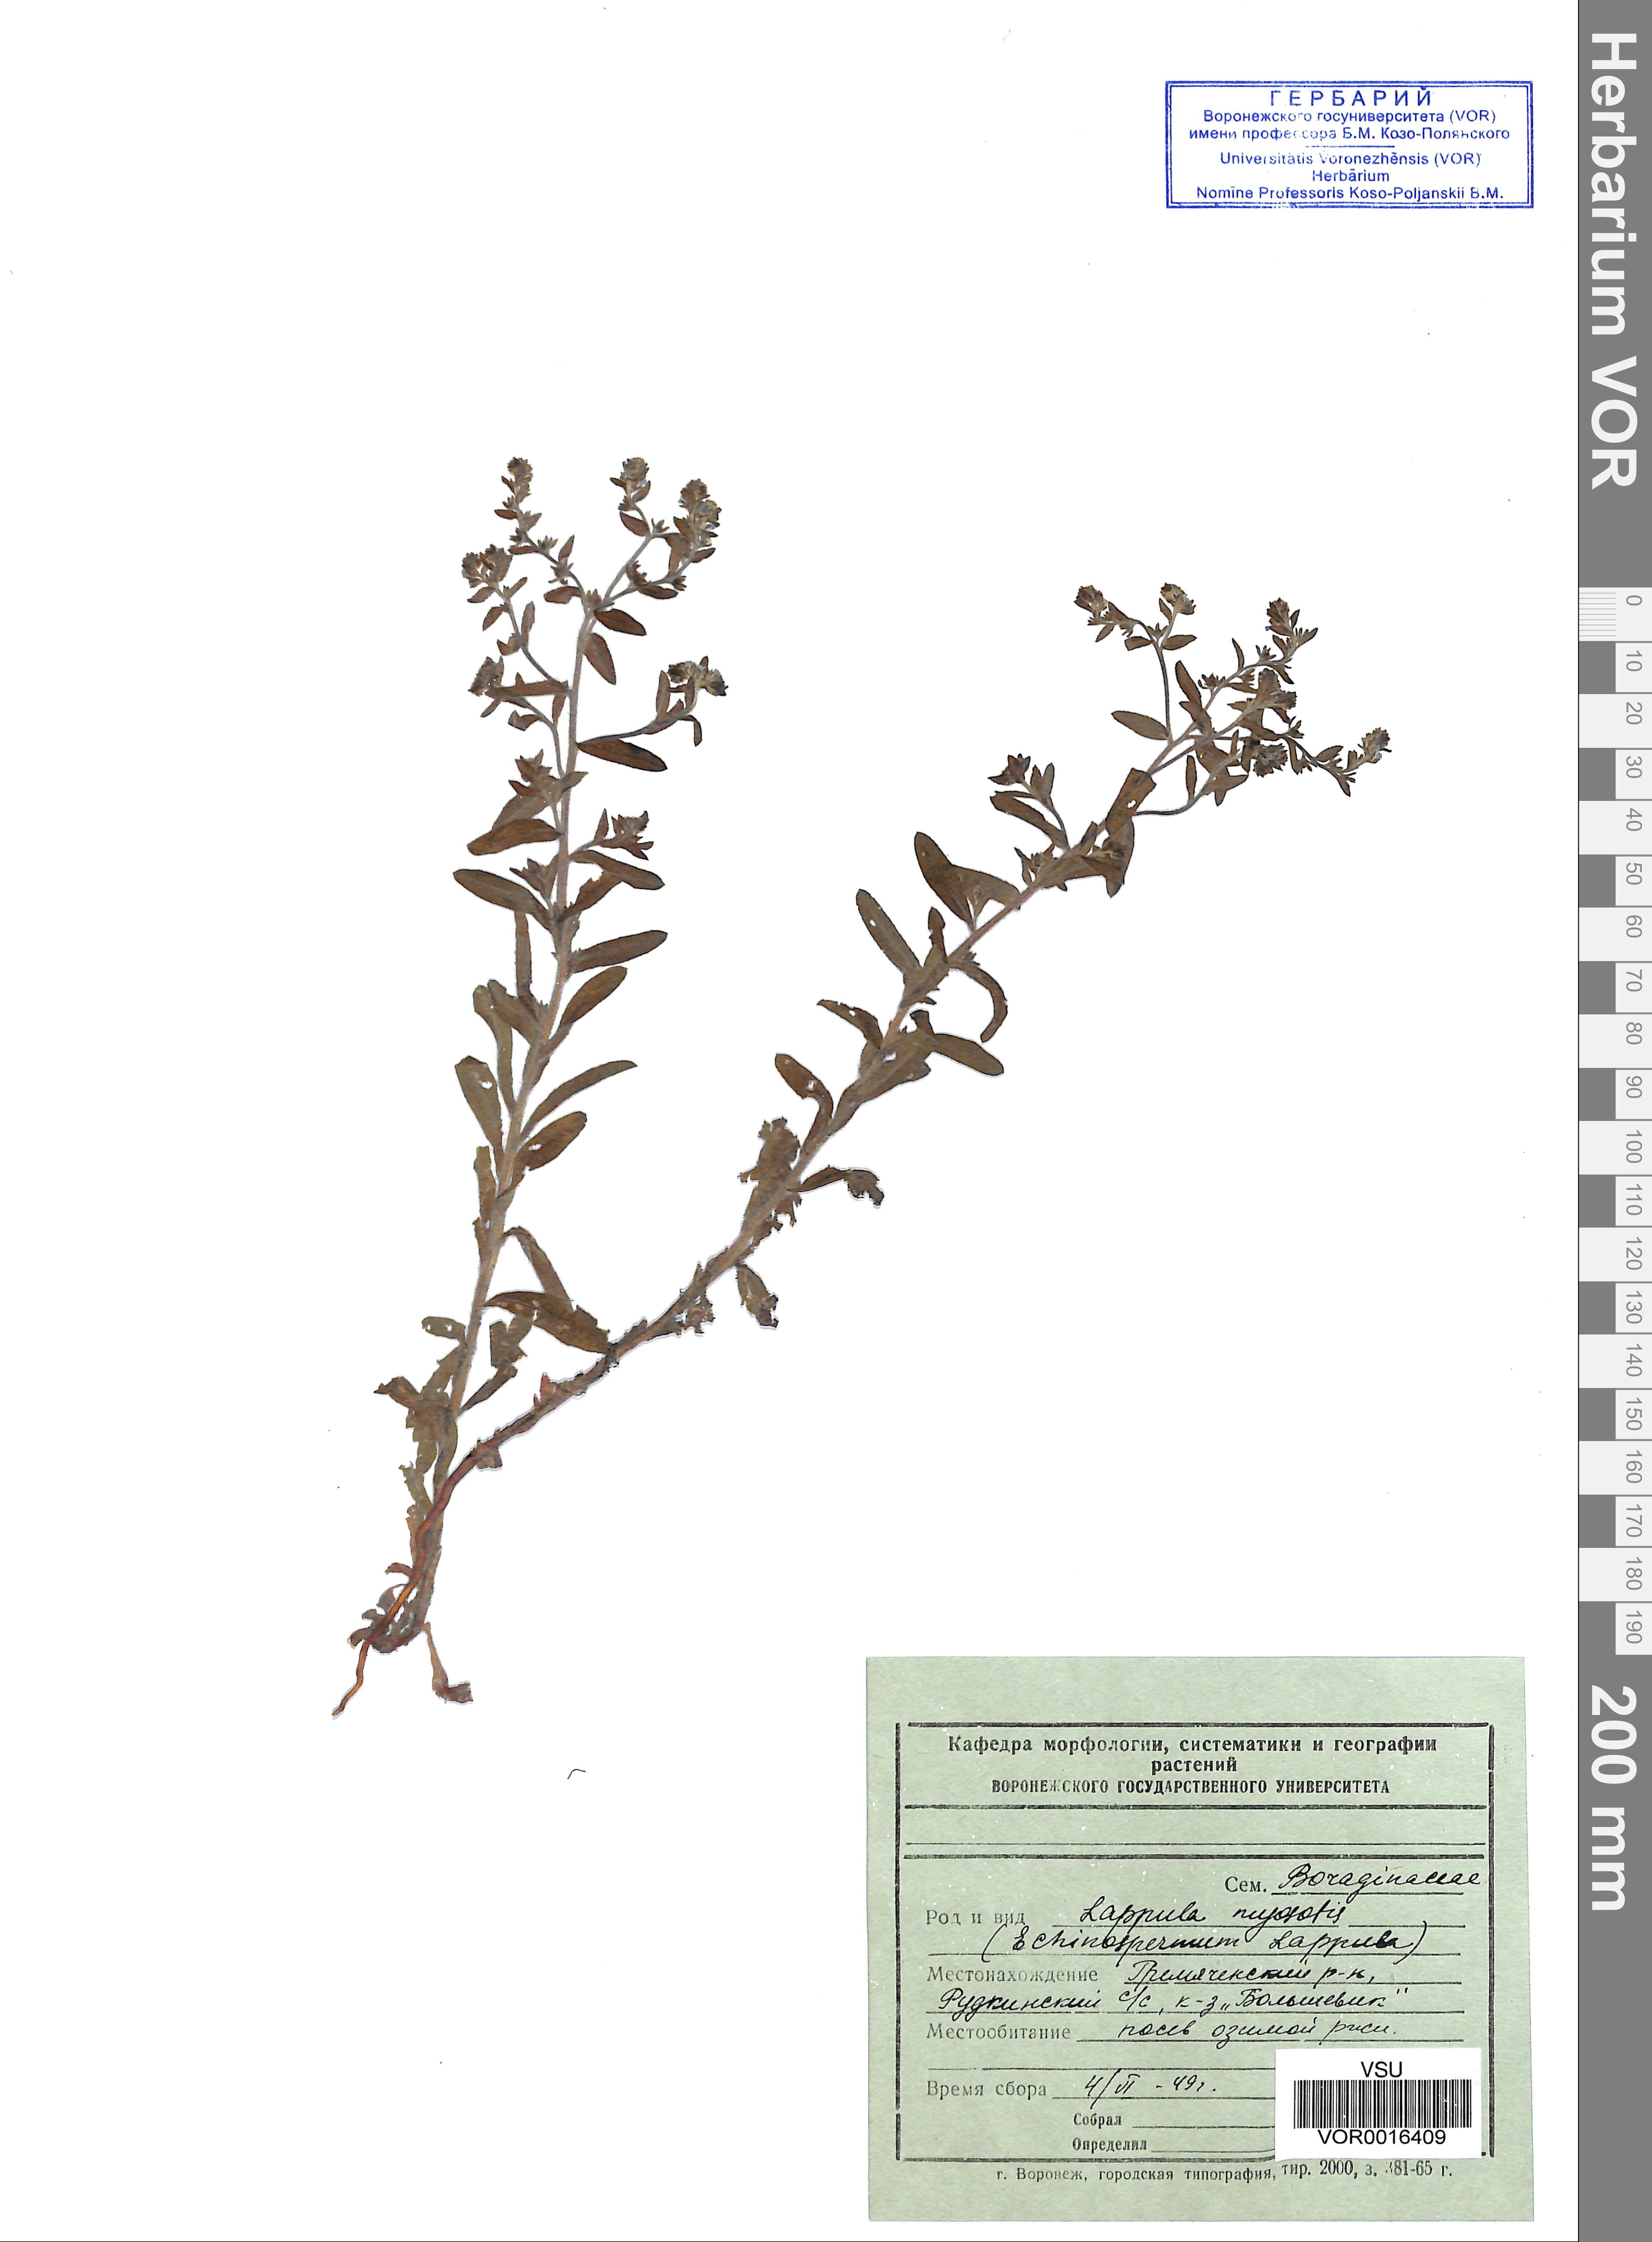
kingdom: Plantae
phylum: Tracheophyta
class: Magnoliopsida
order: Boraginales
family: Boraginaceae
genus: Lappula
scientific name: Lappula squarrosa
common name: European stickseed
